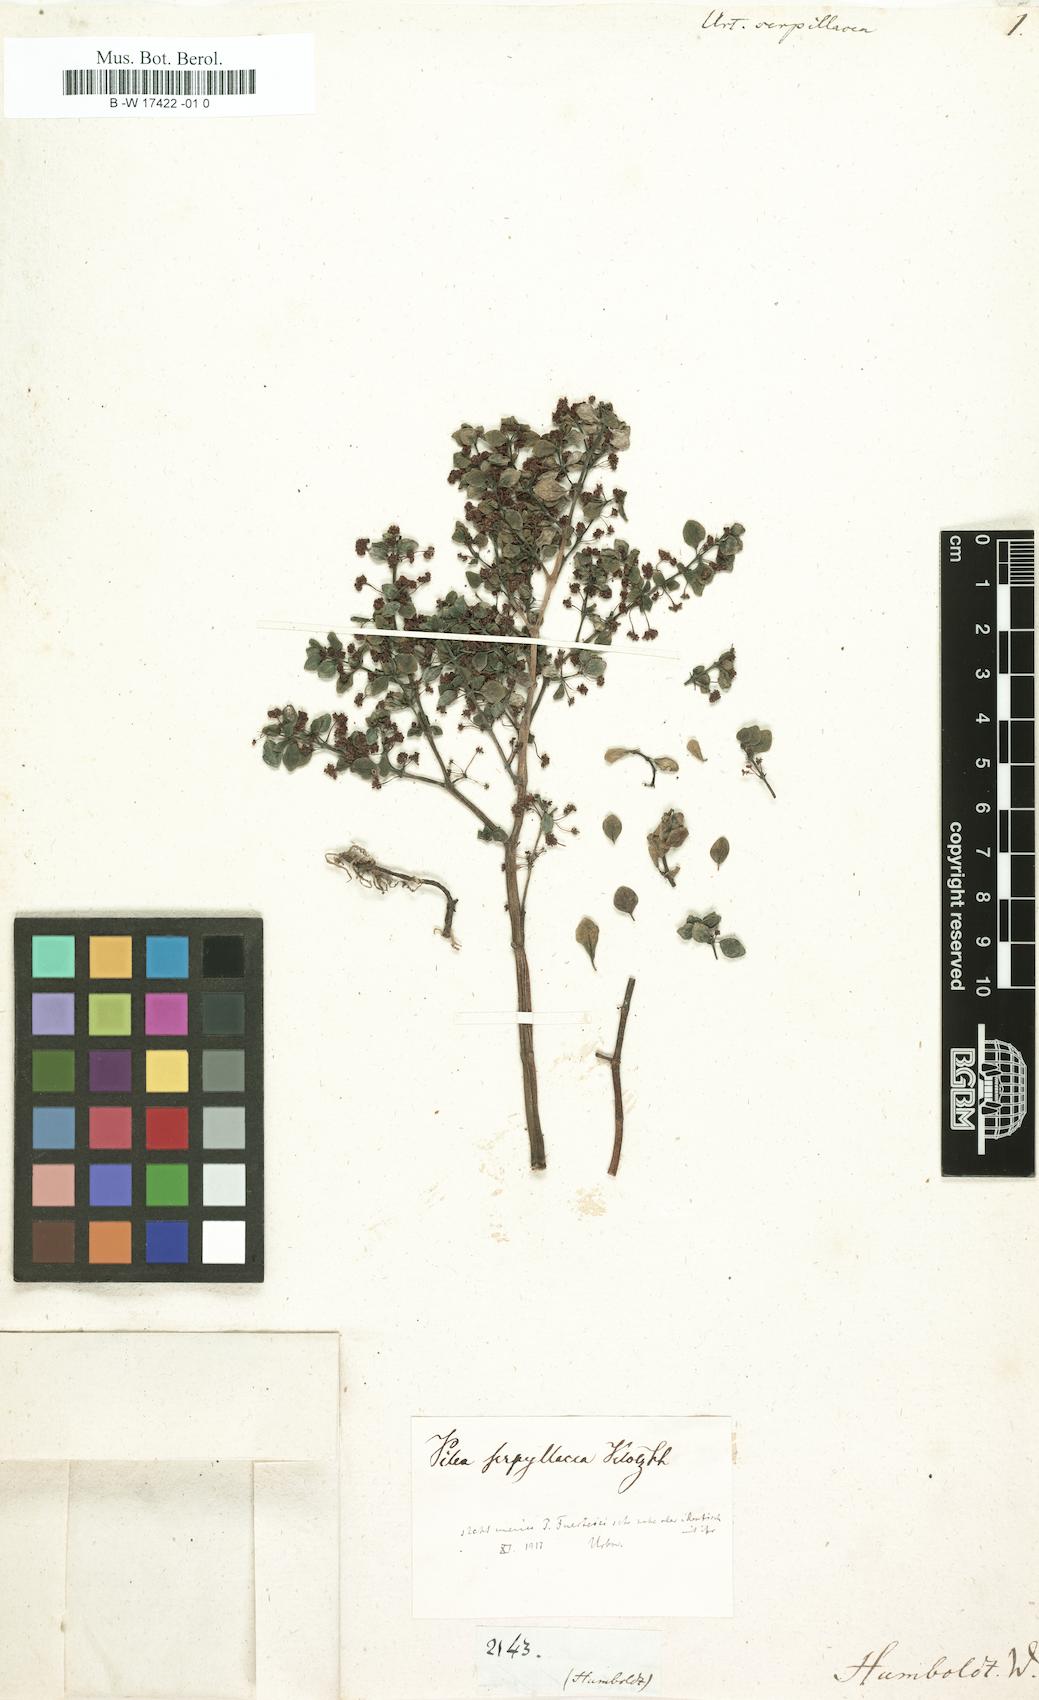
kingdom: Plantae
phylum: Tracheophyta
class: Magnoliopsida
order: Rosales
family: Urticaceae
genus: Pilea
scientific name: Pilea serpyllacea
